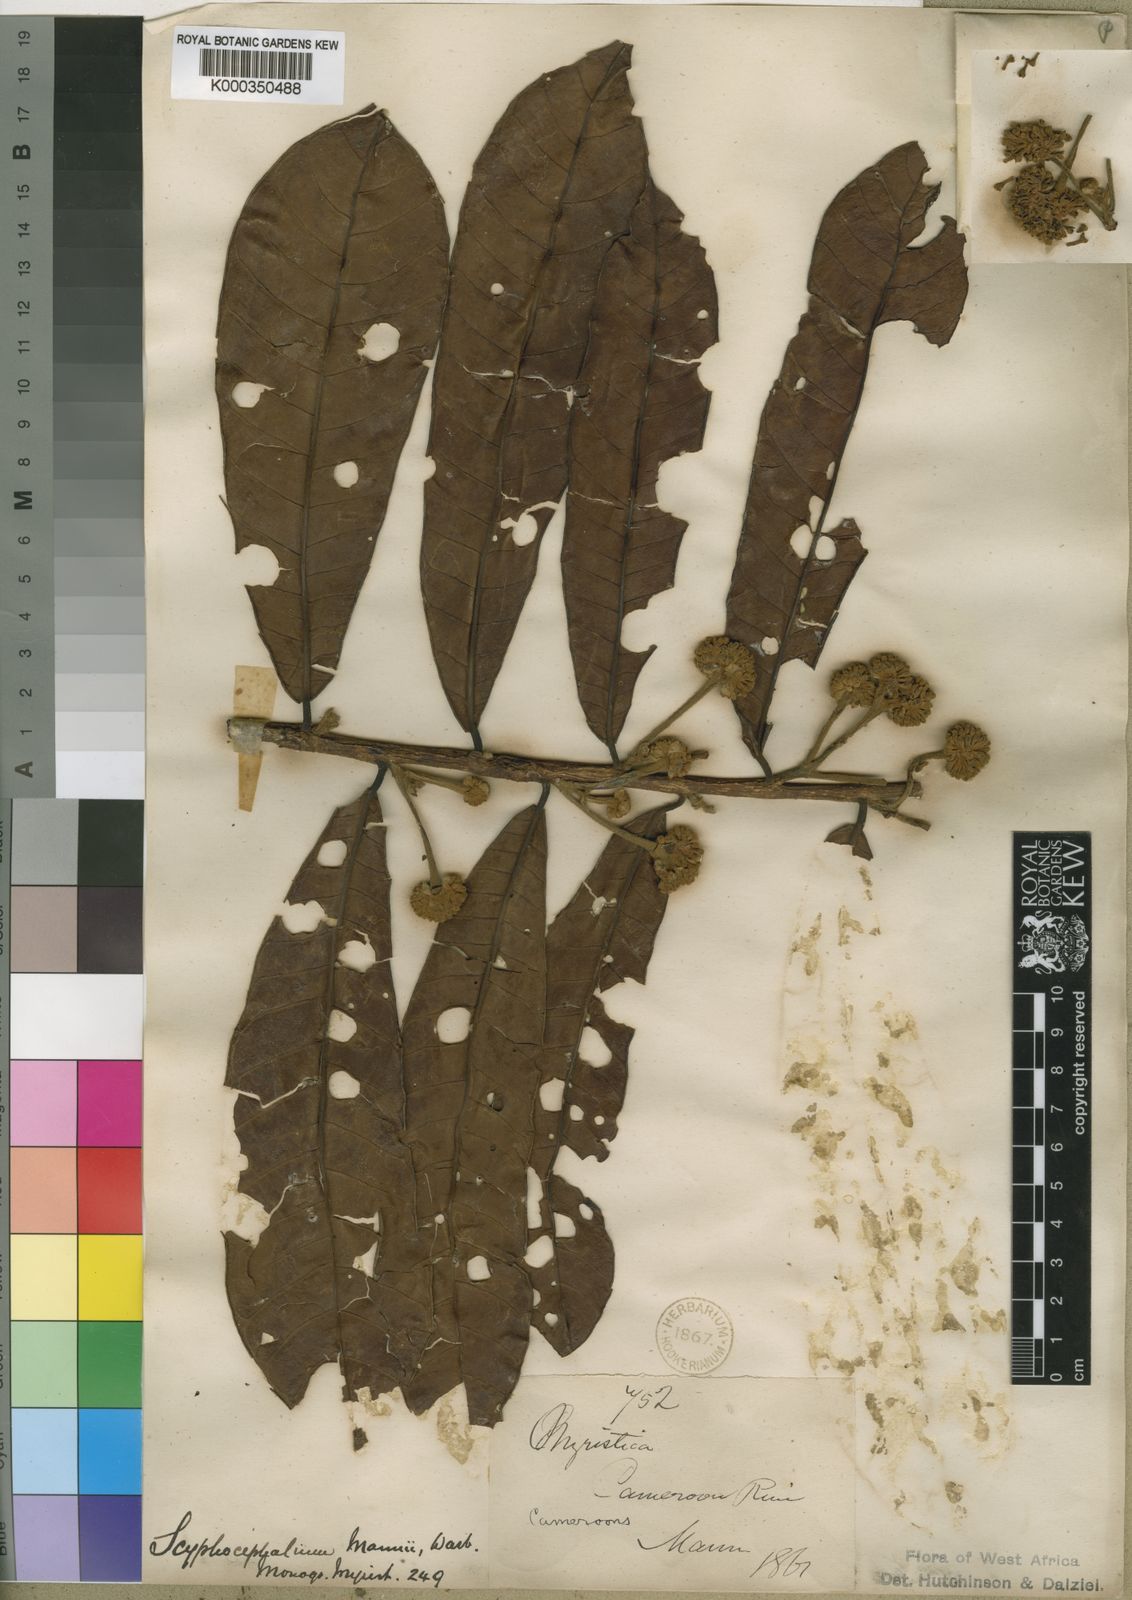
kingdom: Plantae
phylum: Tracheophyta
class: Magnoliopsida
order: Magnoliales
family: Myristicaceae
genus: Scyphocephalum
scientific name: Scyphocephalum mannii
